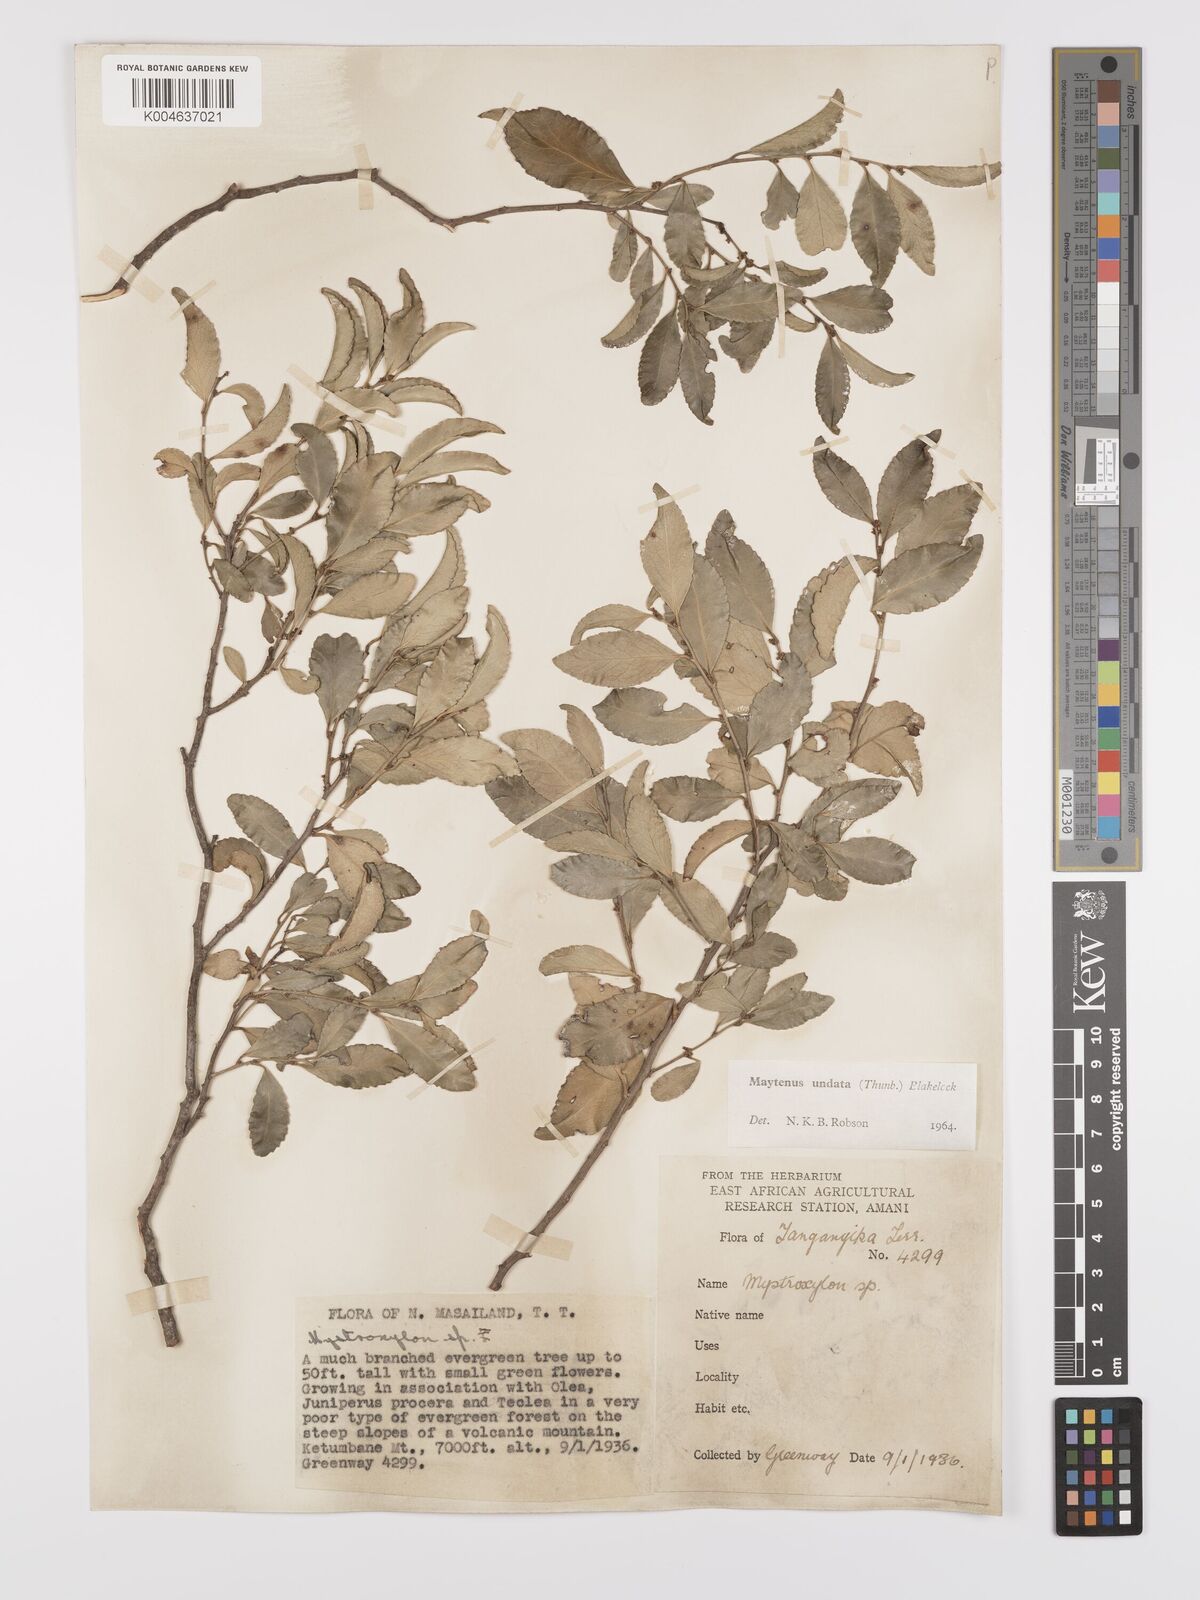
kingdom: Plantae
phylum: Tracheophyta
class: Magnoliopsida
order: Celastrales
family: Celastraceae
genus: Gymnosporia
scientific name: Gymnosporia undata
